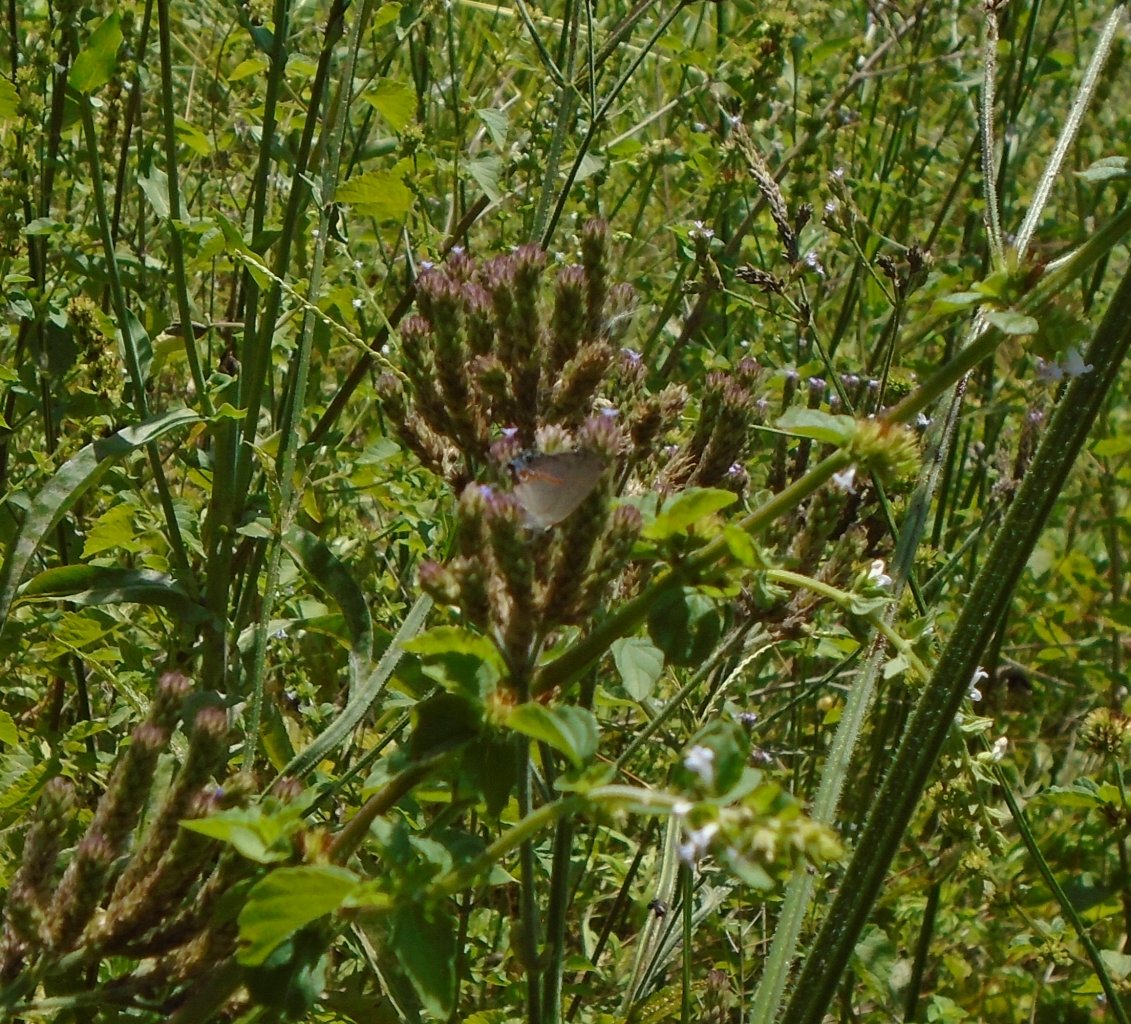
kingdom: Animalia
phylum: Arthropoda
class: Insecta
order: Lepidoptera
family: Lycaenidae
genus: Calycopis
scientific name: Calycopis cecrops
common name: Red-banded Hairstreak
